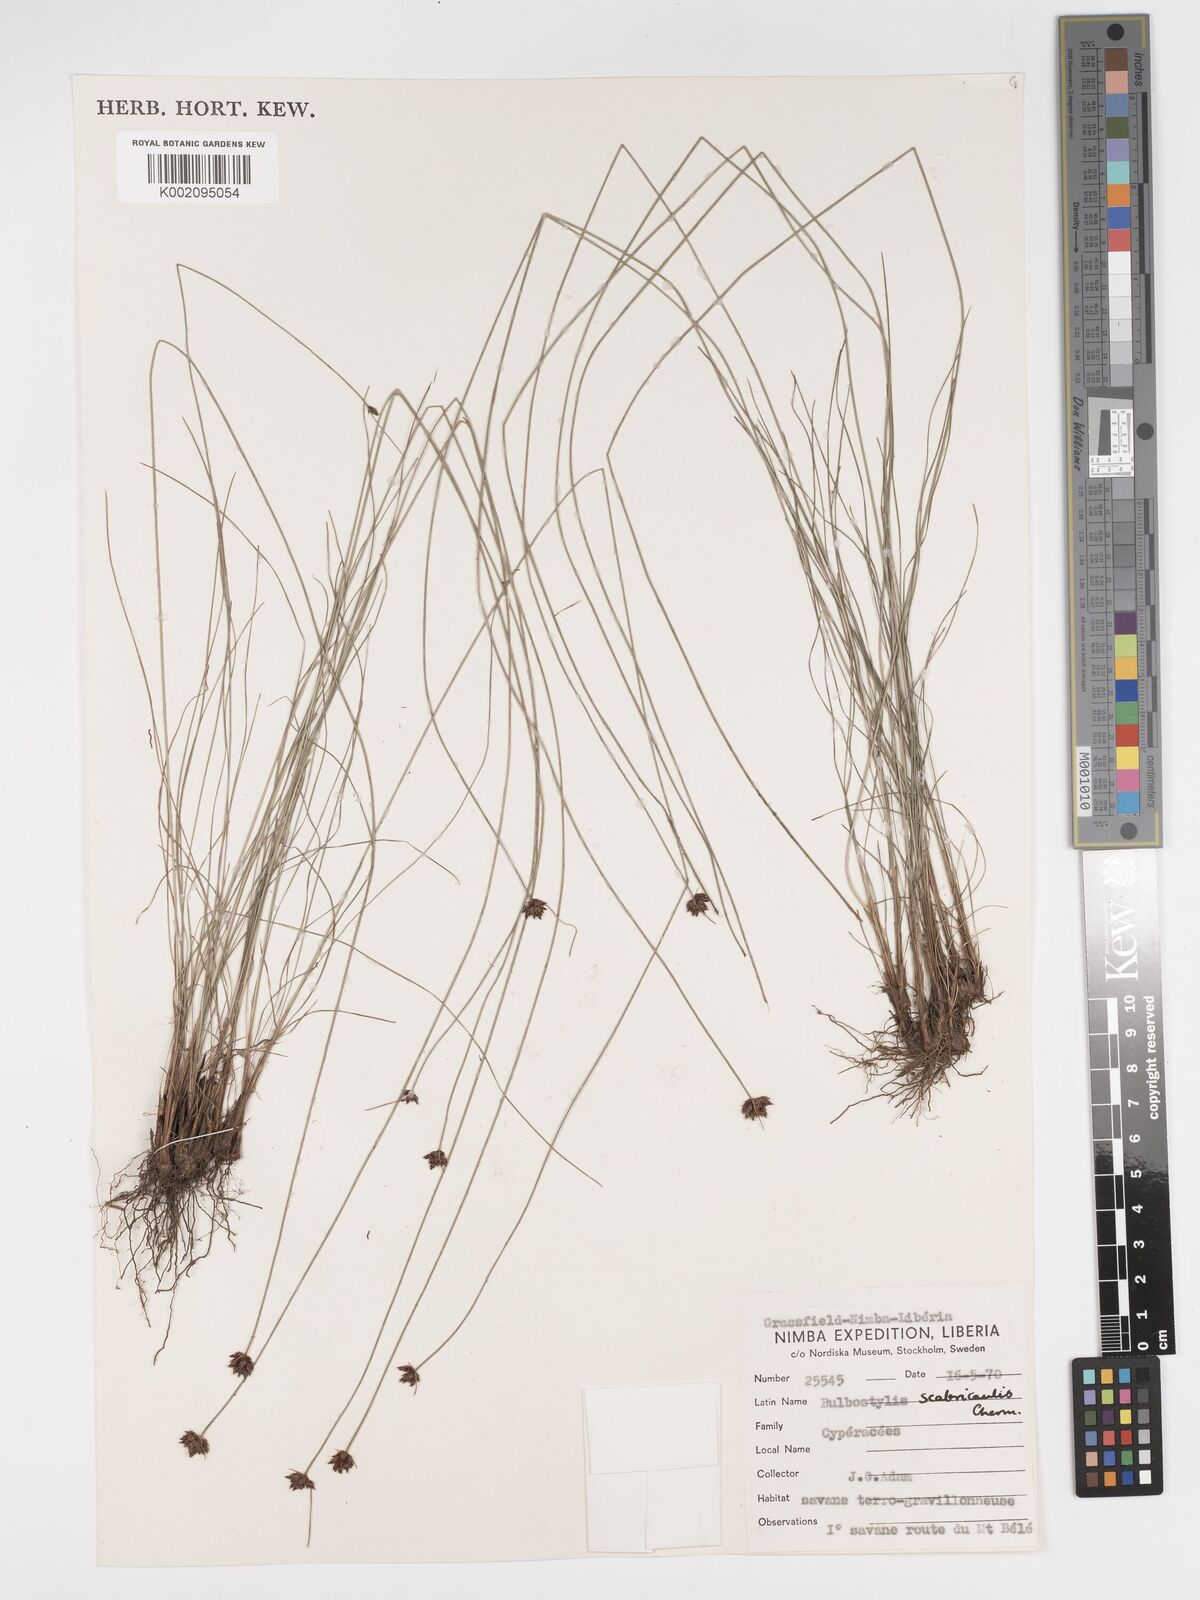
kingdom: Plantae
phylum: Tracheophyta
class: Liliopsida
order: Poales
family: Cyperaceae
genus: Bulbostylis
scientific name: Bulbostylis
